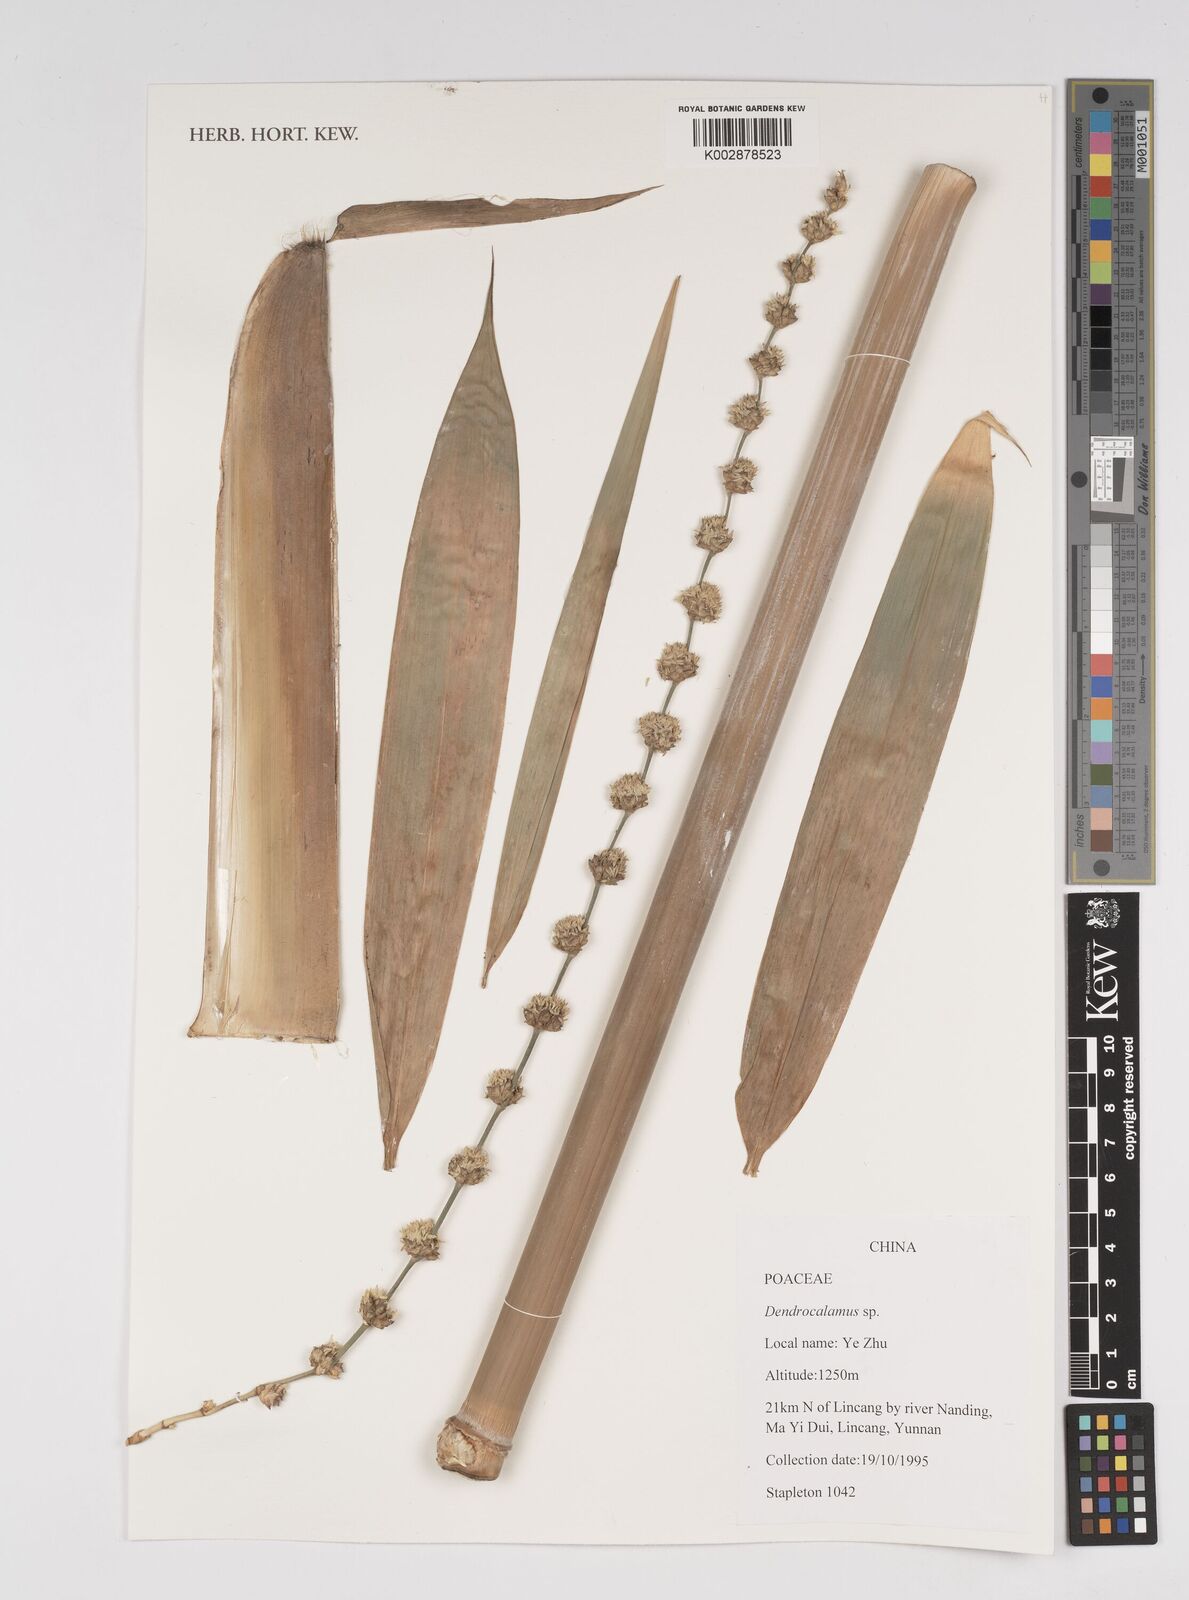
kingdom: Plantae
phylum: Tracheophyta
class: Liliopsida
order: Poales
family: Poaceae
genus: Dendrocalamus
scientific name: Dendrocalamus
